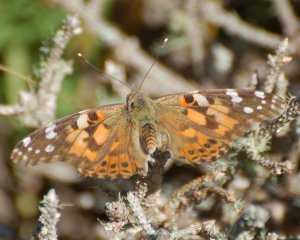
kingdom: Animalia
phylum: Arthropoda
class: Insecta
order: Lepidoptera
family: Nymphalidae
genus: Vanessa
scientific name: Vanessa cardui
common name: Painted Lady
